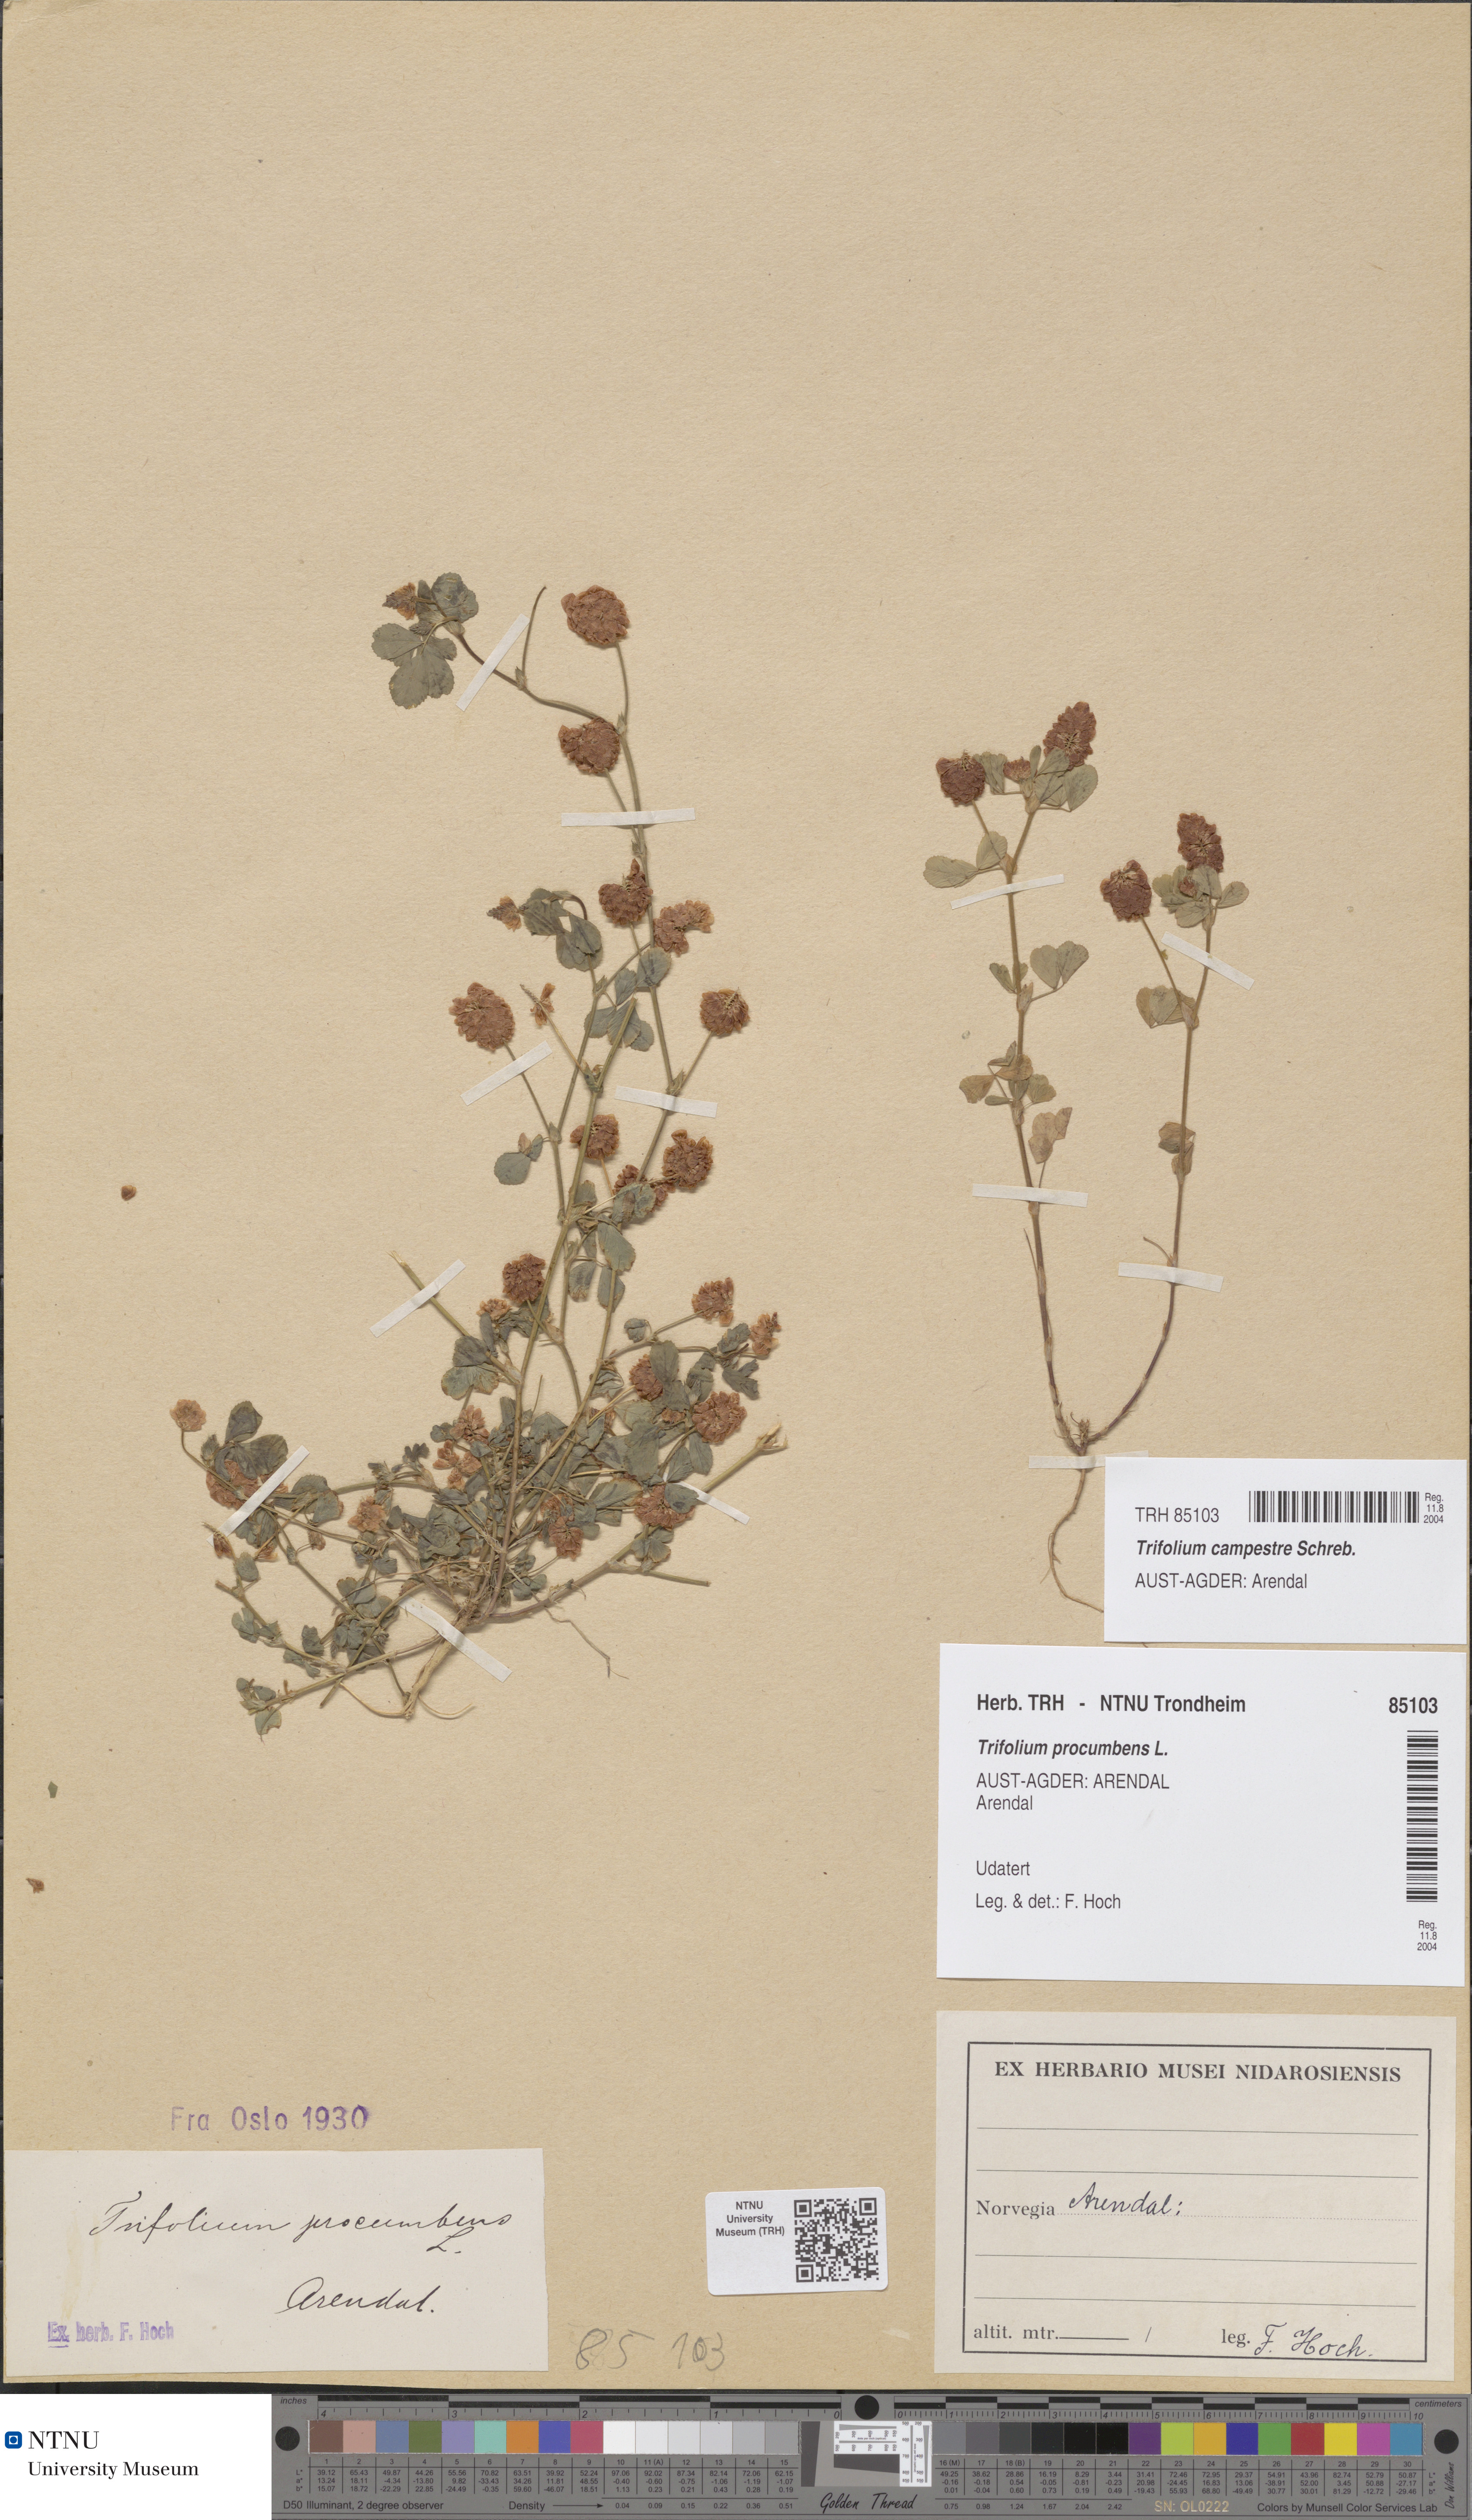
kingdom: Plantae
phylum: Tracheophyta
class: Magnoliopsida
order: Fabales
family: Fabaceae
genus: Trifolium
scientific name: Trifolium campestre
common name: Field clover
